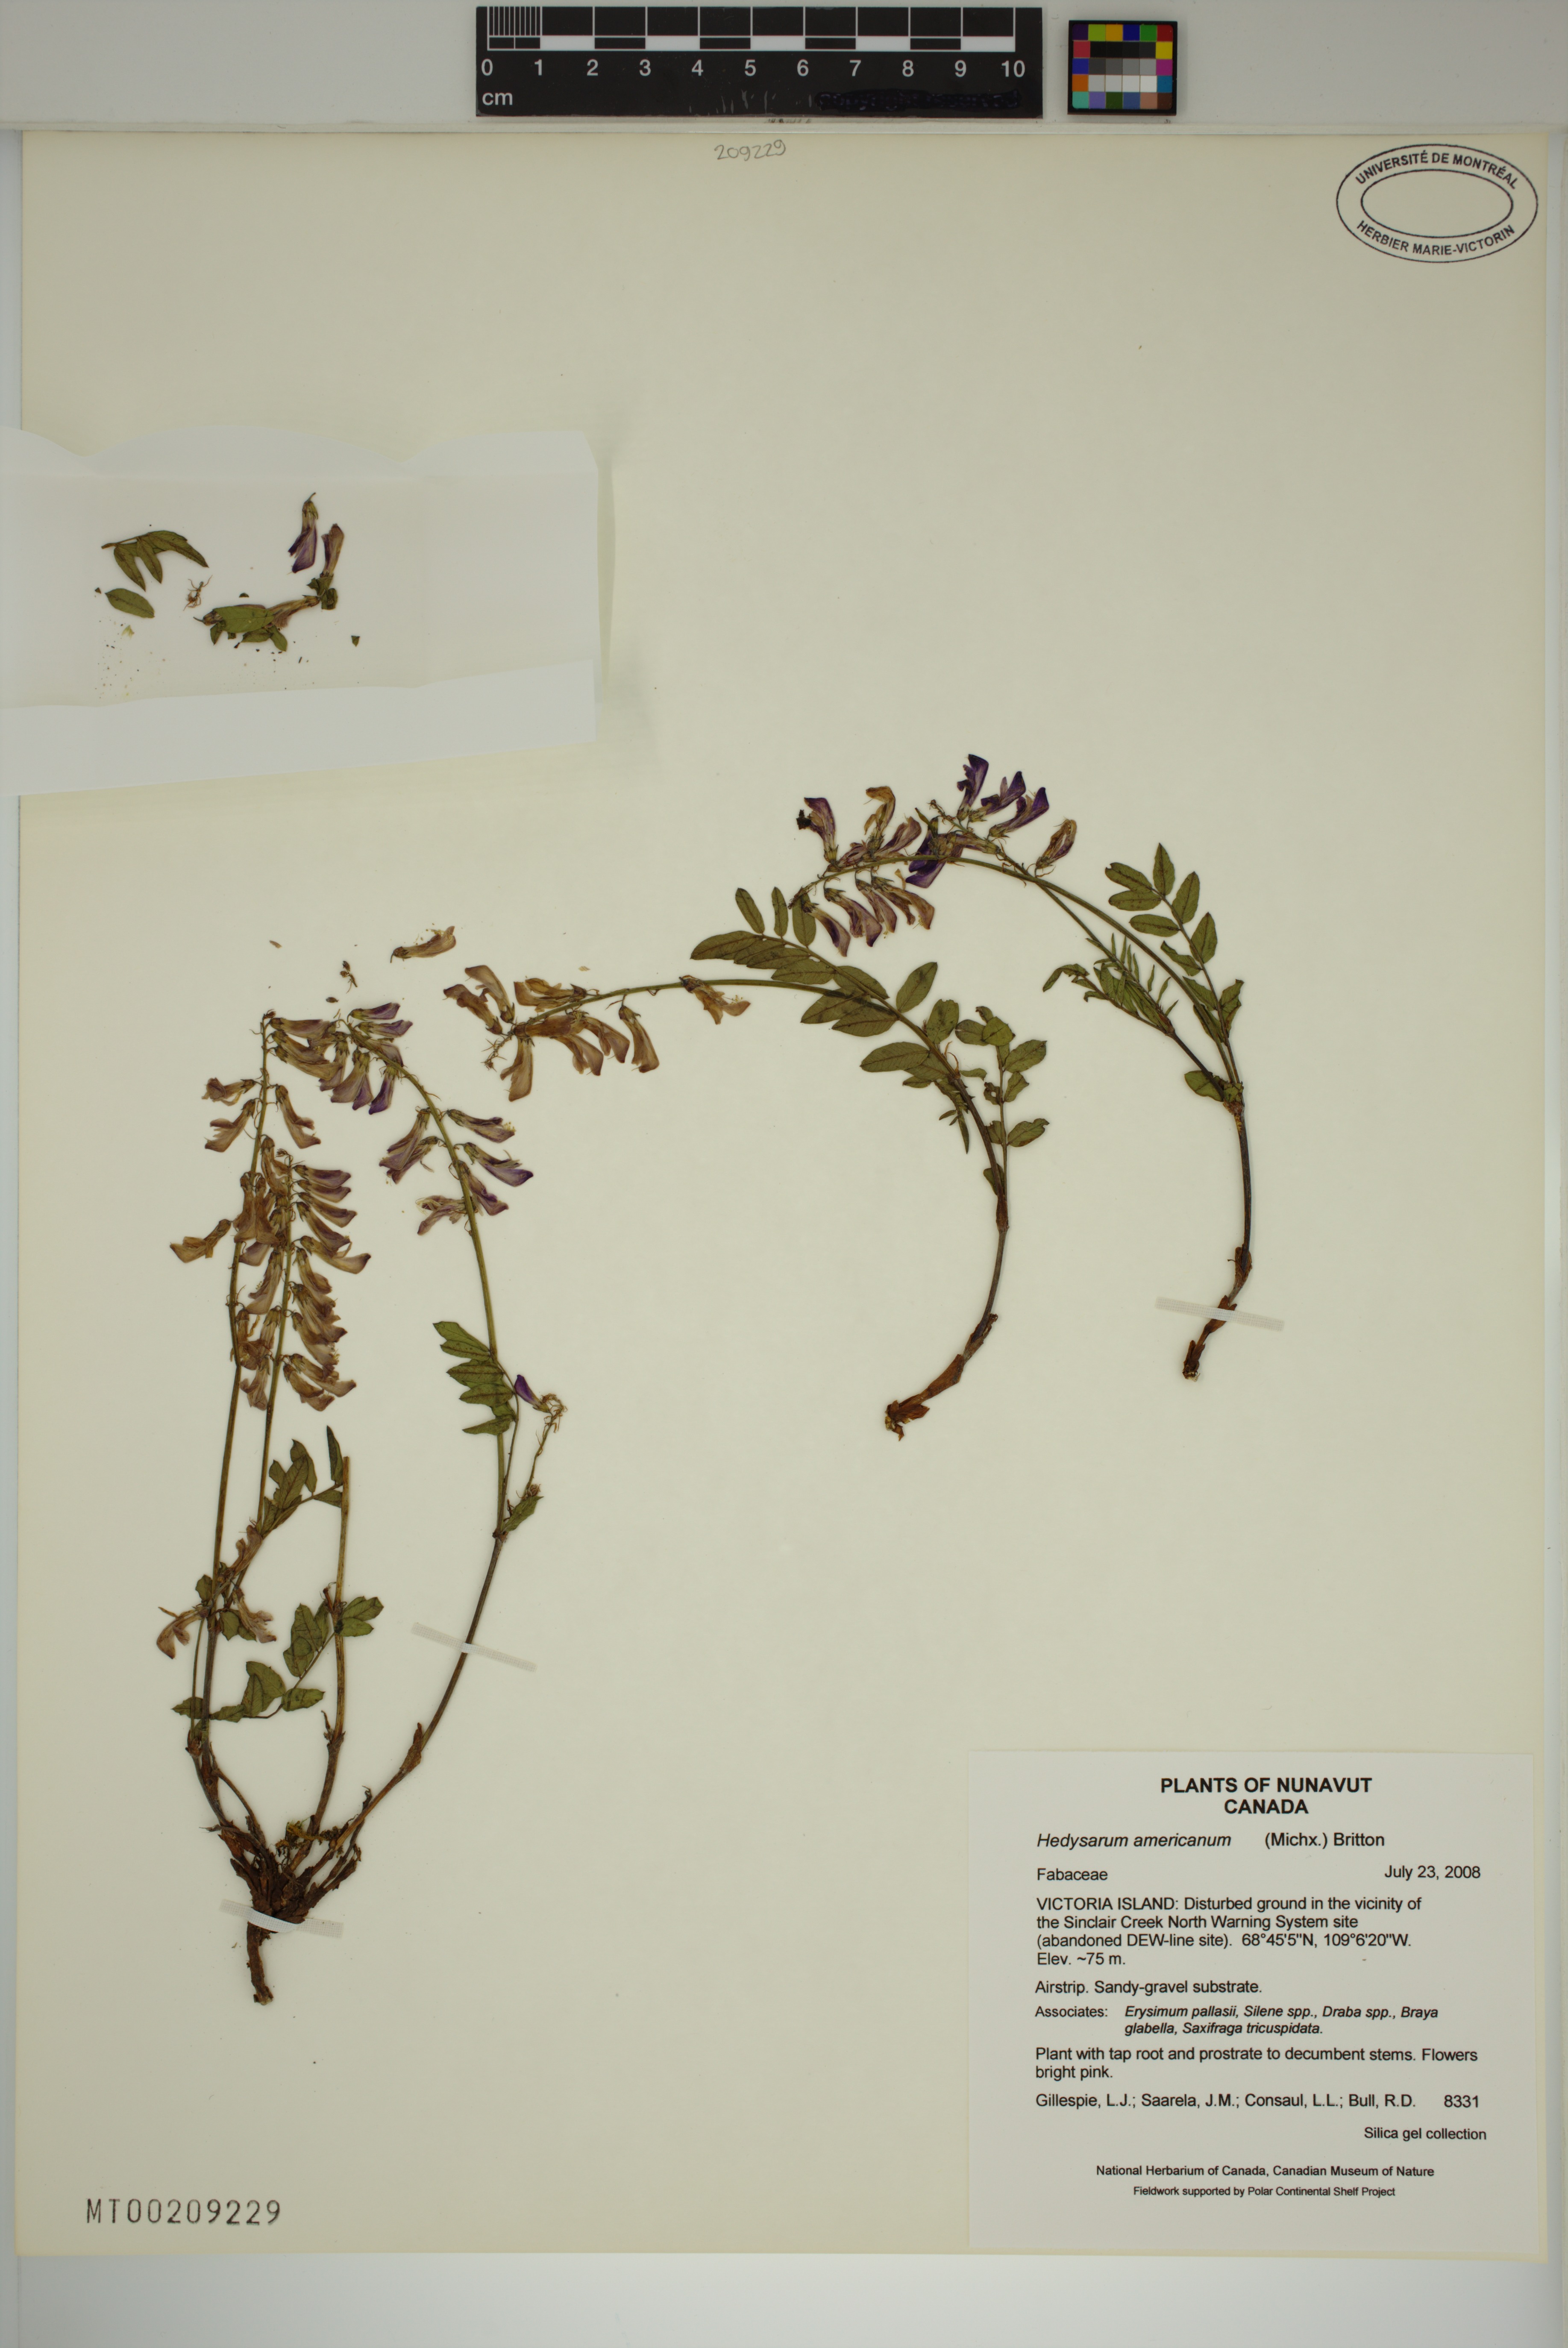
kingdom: Plantae
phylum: Tracheophyta
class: Magnoliopsida
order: Fabales
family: Fabaceae
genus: Hedysarum
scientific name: Hedysarum americanum
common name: Alpine hedysarum
